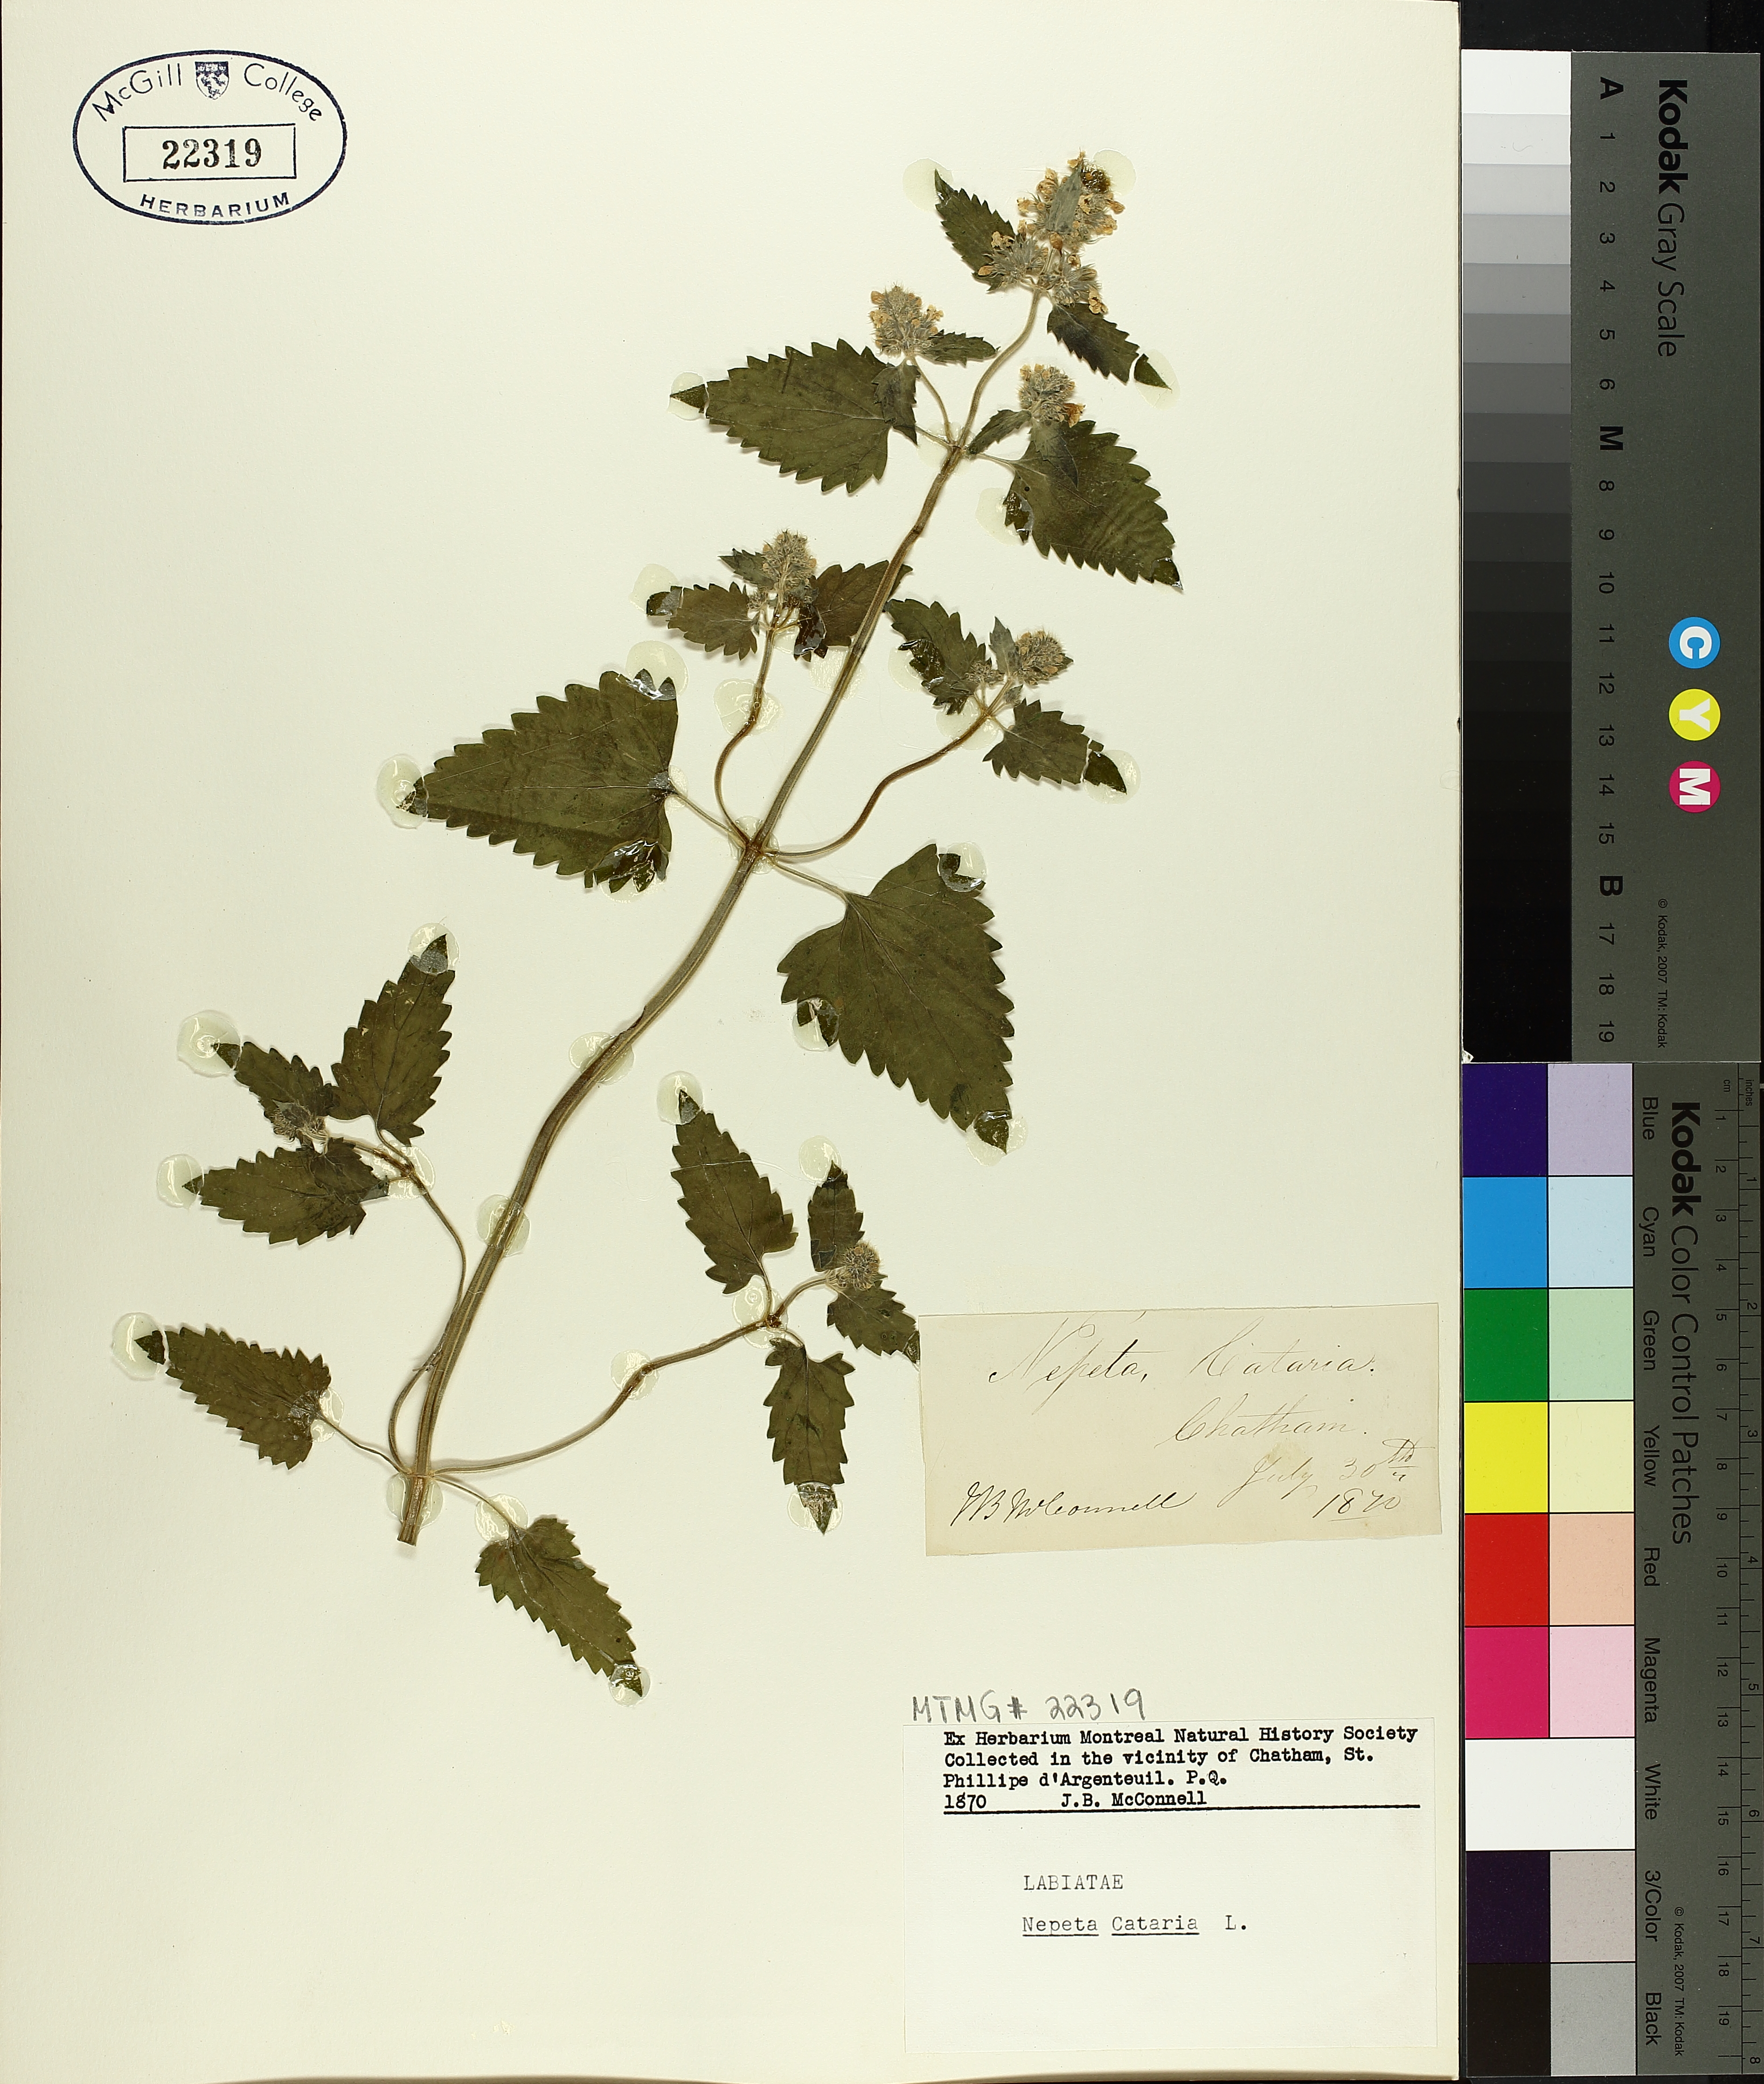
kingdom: Plantae
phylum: Tracheophyta
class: Magnoliopsida
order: Lamiales
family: Lamiaceae
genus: Nepeta
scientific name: Nepeta cataria
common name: Catnip
